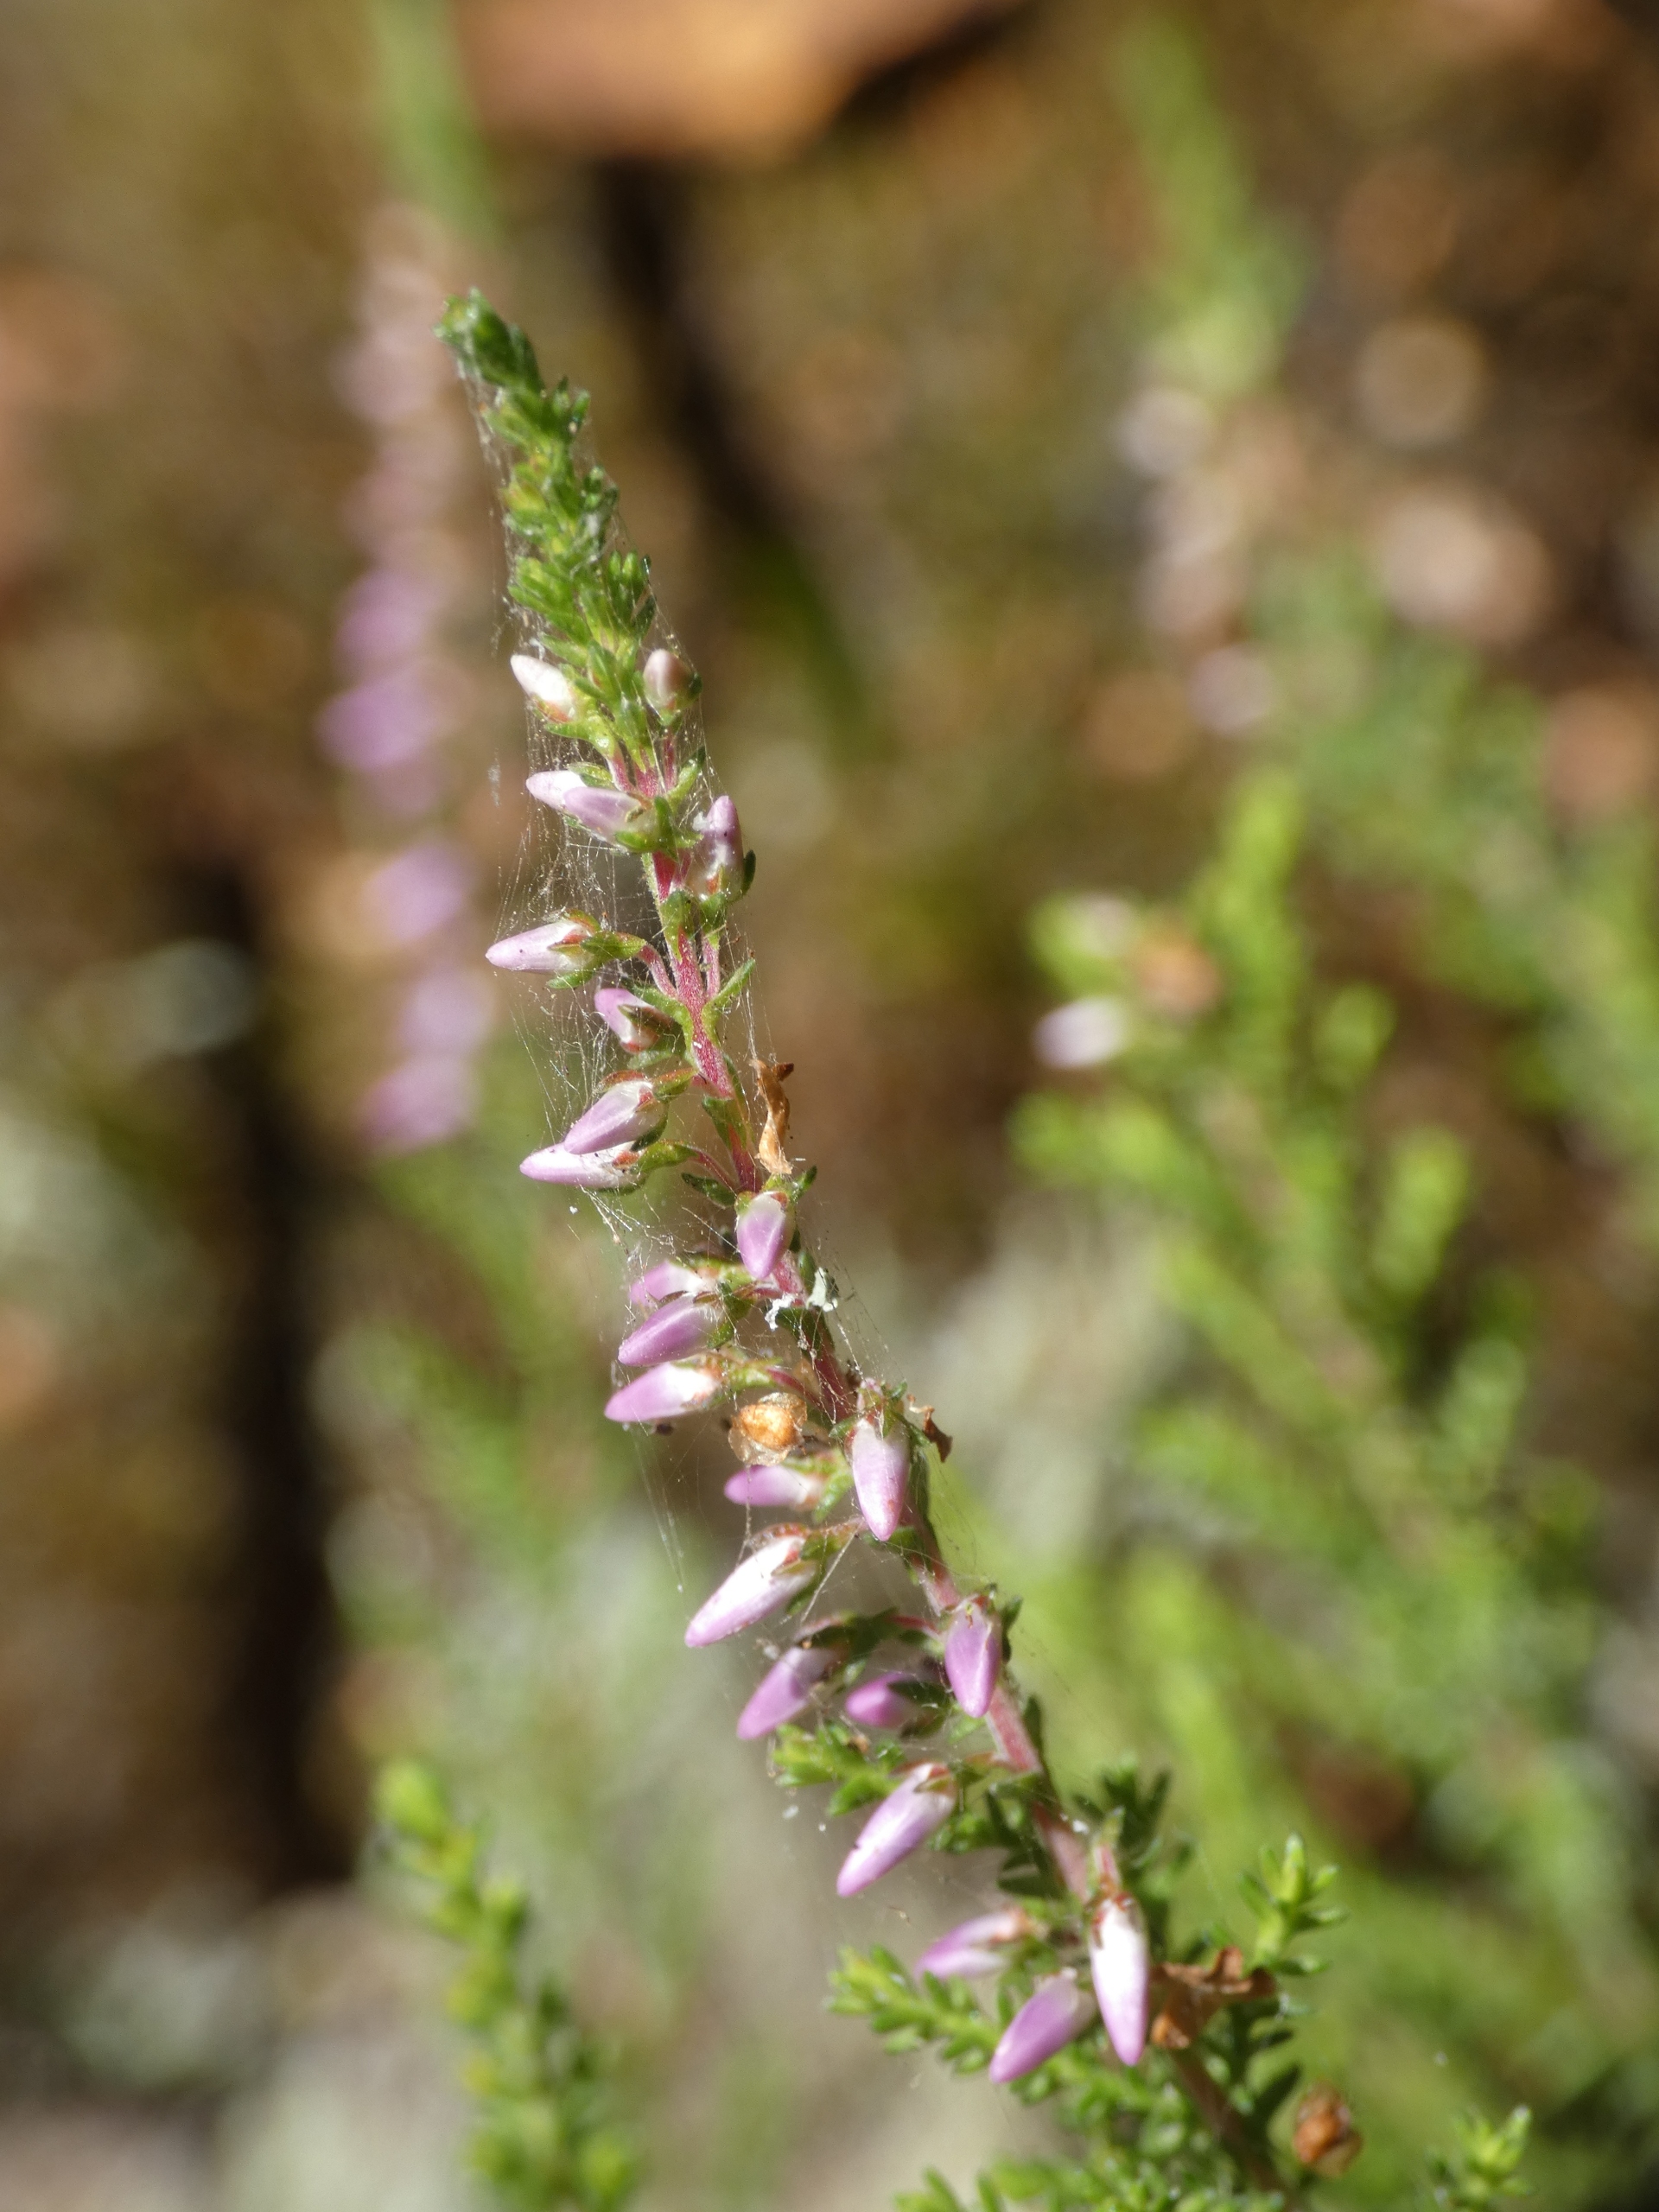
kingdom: Plantae
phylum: Tracheophyta
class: Magnoliopsida
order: Ericales
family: Ericaceae
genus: Calluna
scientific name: Calluna vulgaris
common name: Hedelyng
